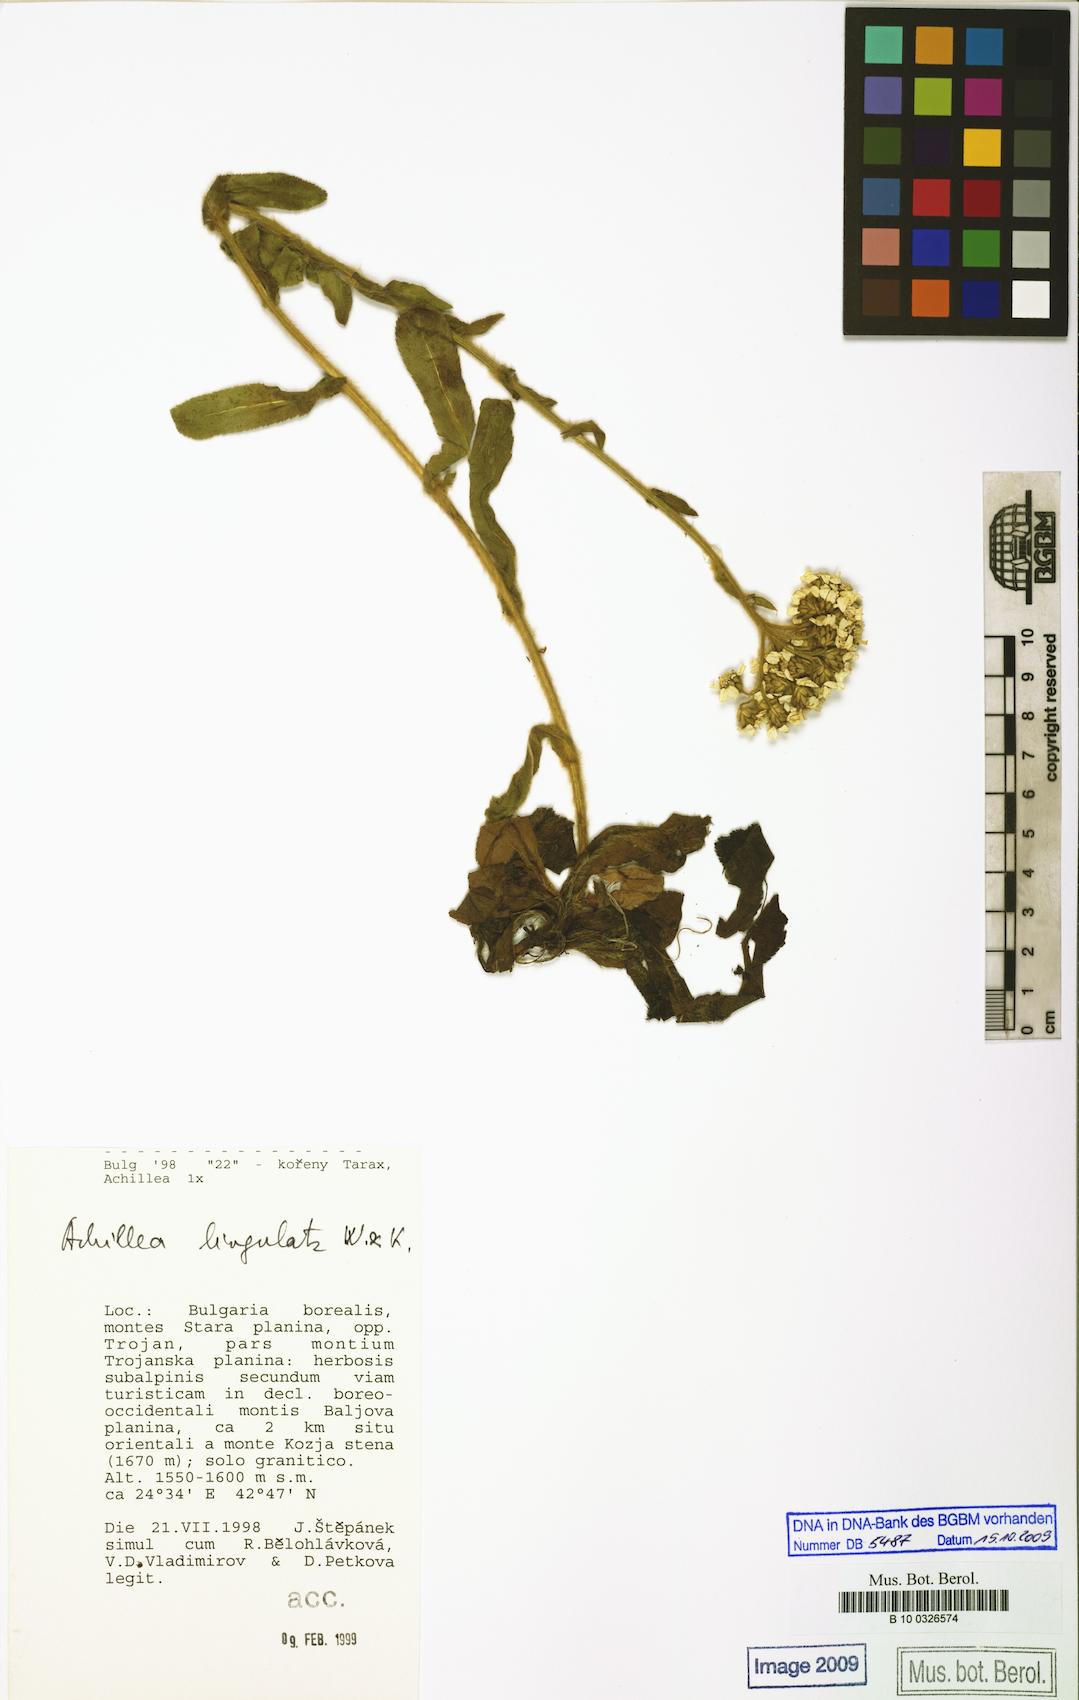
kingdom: Plantae
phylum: Tracheophyta
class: Magnoliopsida
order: Asterales
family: Asteraceae
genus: Achillea
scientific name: Achillea lingulata
